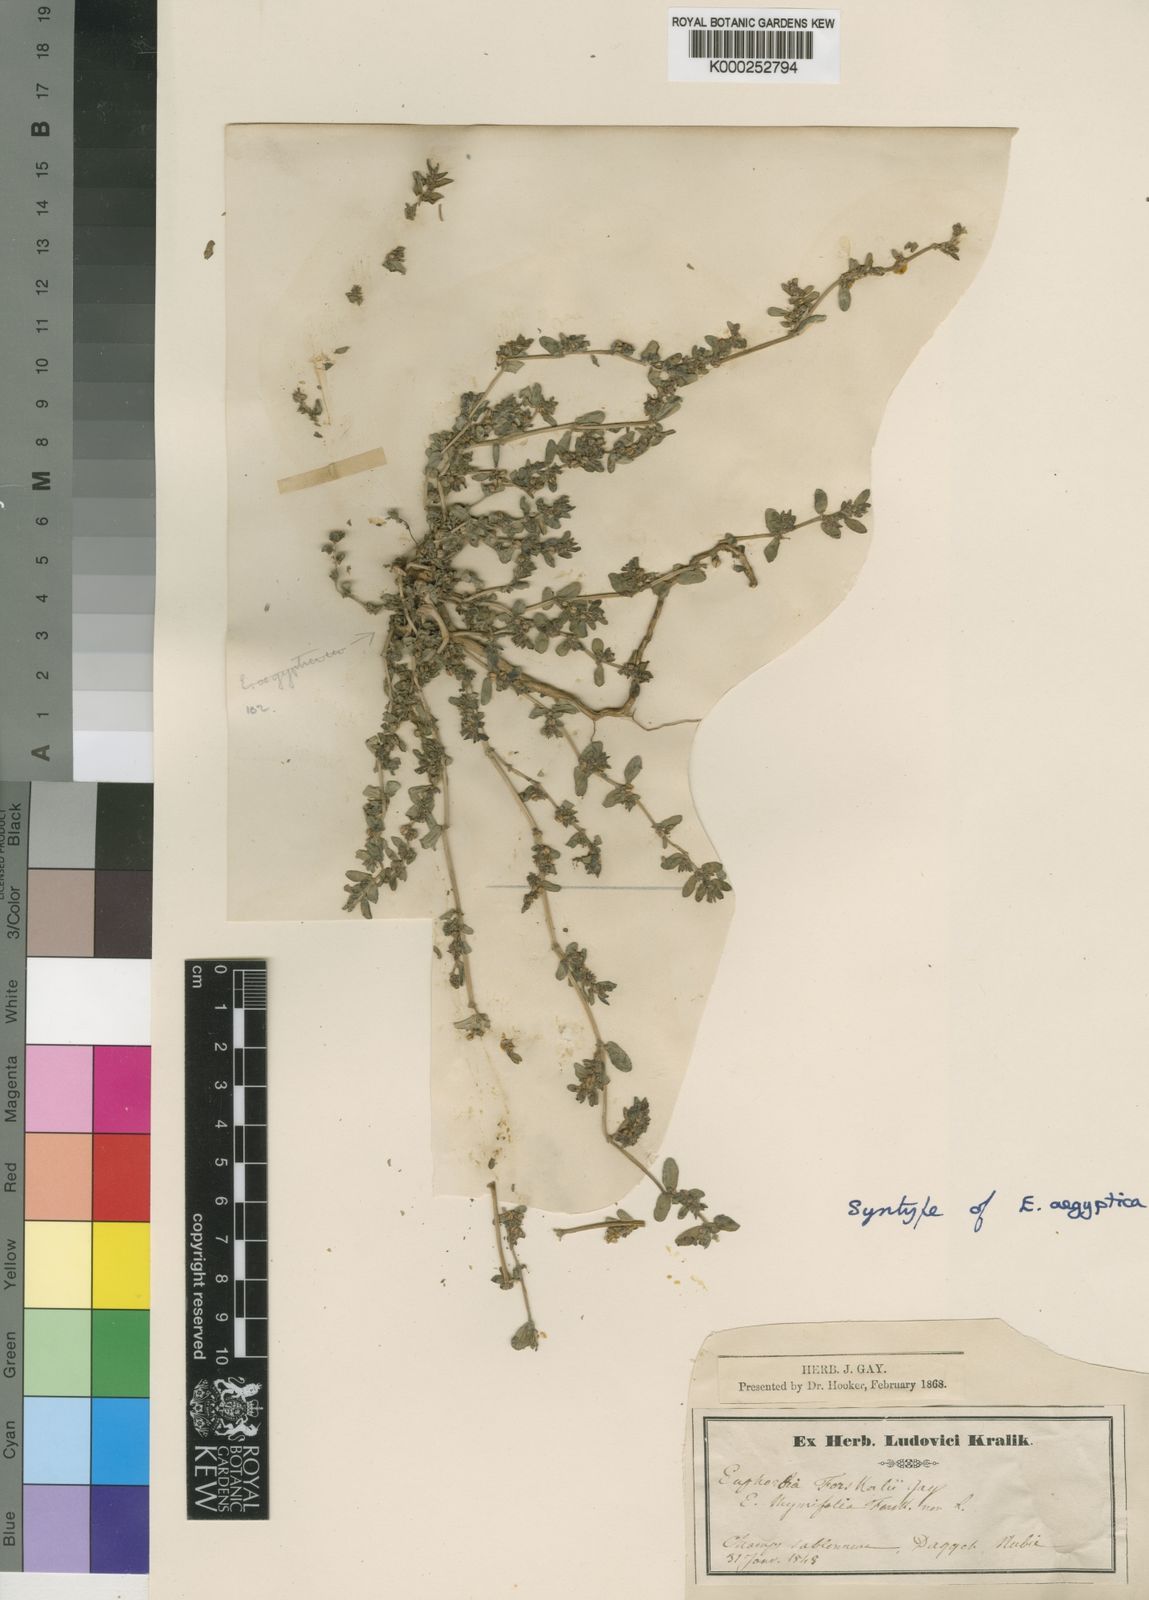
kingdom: Plantae
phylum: Tracheophyta
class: Magnoliopsida
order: Malpighiales
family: Euphorbiaceae
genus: Euphorbia
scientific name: Euphorbia
